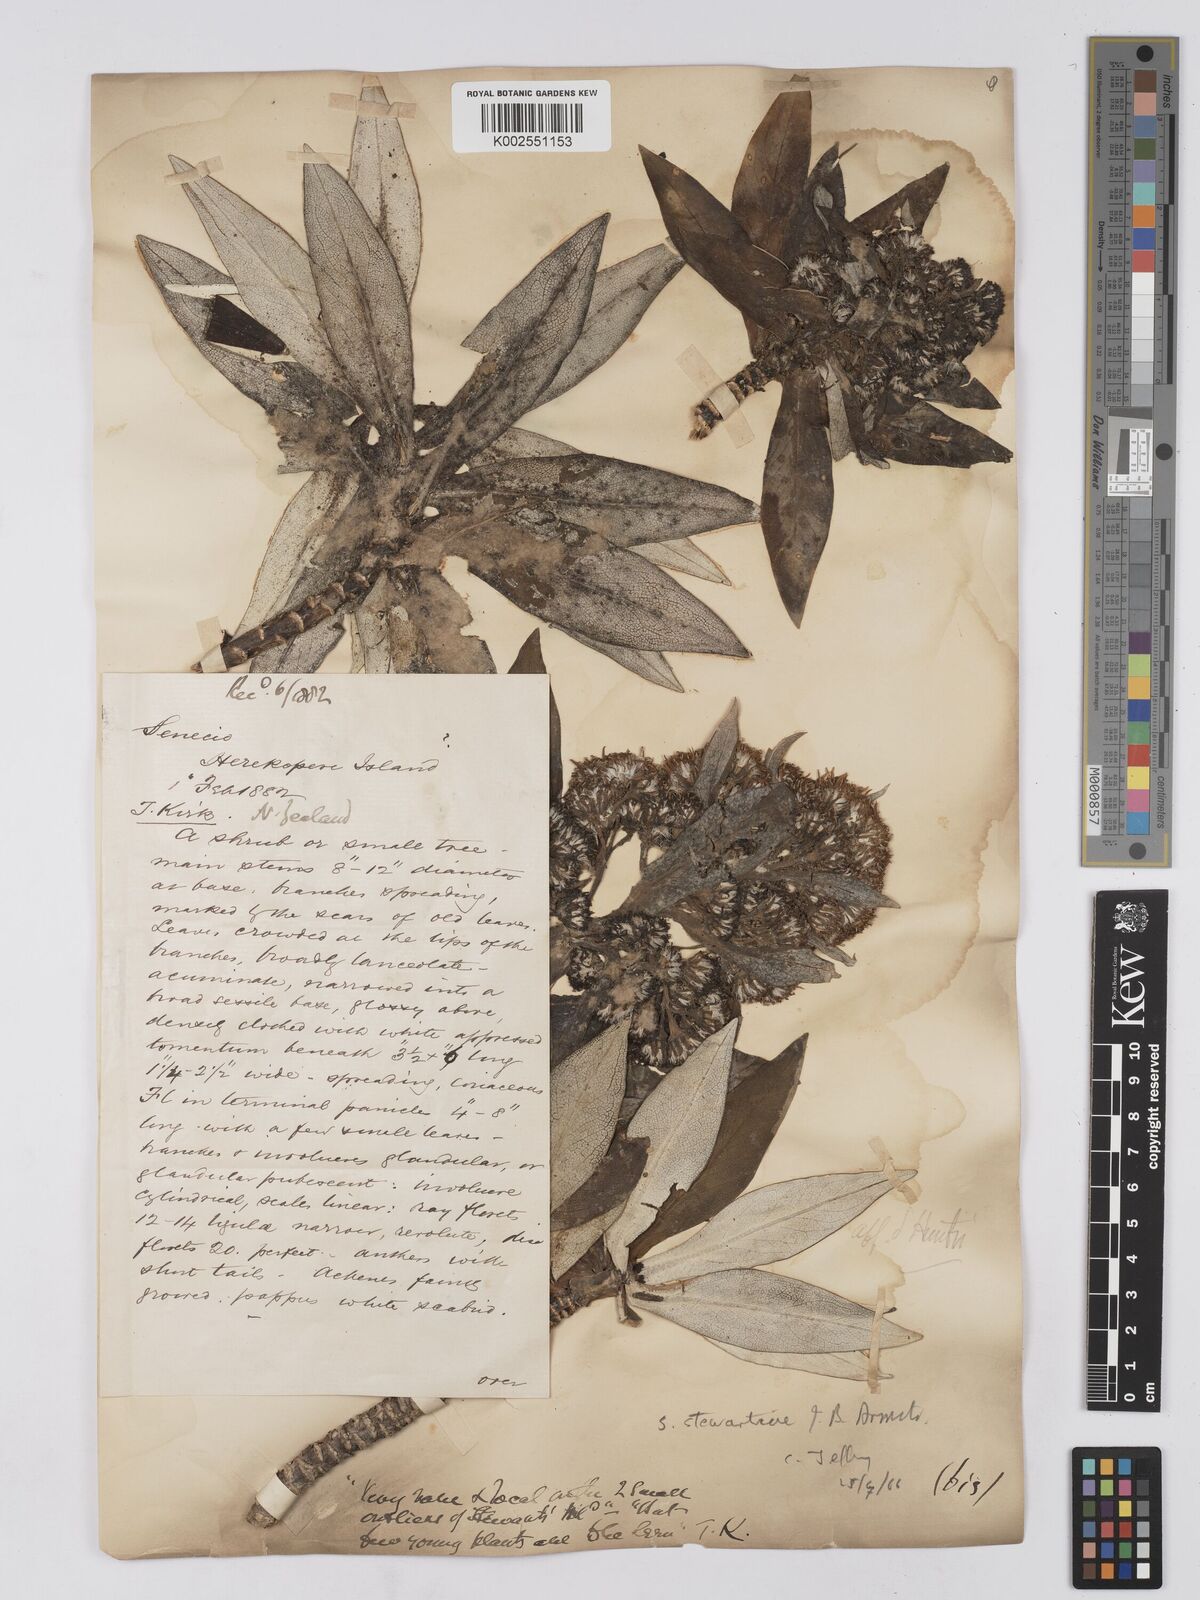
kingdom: Plantae
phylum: Tracheophyta
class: Magnoliopsida
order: Asterales
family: Asteraceae
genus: Brachyglottis
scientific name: Brachyglottis stewartiae
